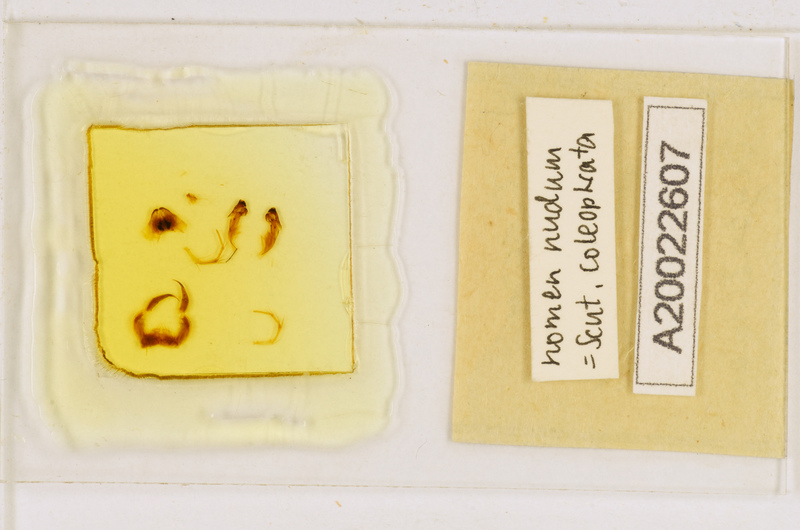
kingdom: Animalia
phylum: Arthropoda
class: Chilopoda
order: Scutigeromorpha
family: Scutigeridae
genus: Scutigera
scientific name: Scutigera coleoptrata
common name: House centipede
